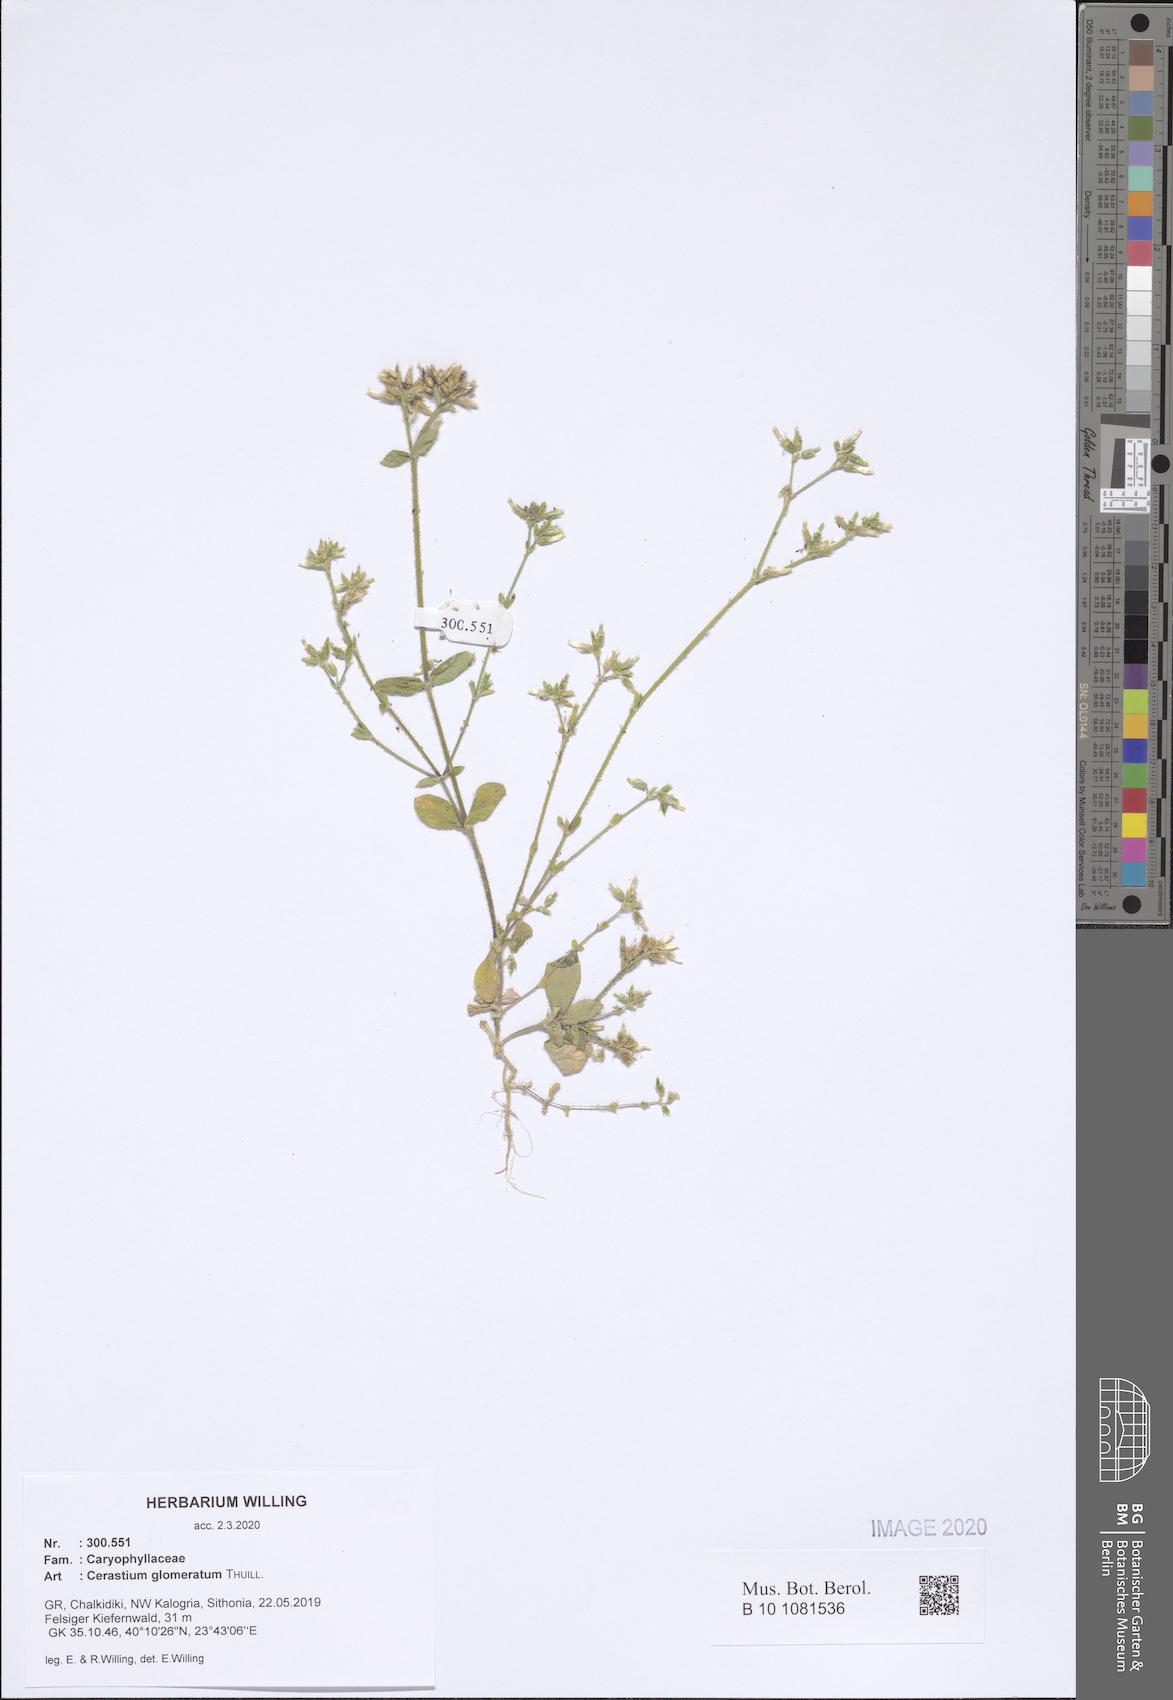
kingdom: Plantae
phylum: Tracheophyta
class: Magnoliopsida
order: Caryophyllales
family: Caryophyllaceae
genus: Cerastium
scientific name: Cerastium glomeratum
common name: Sticky chickweed
